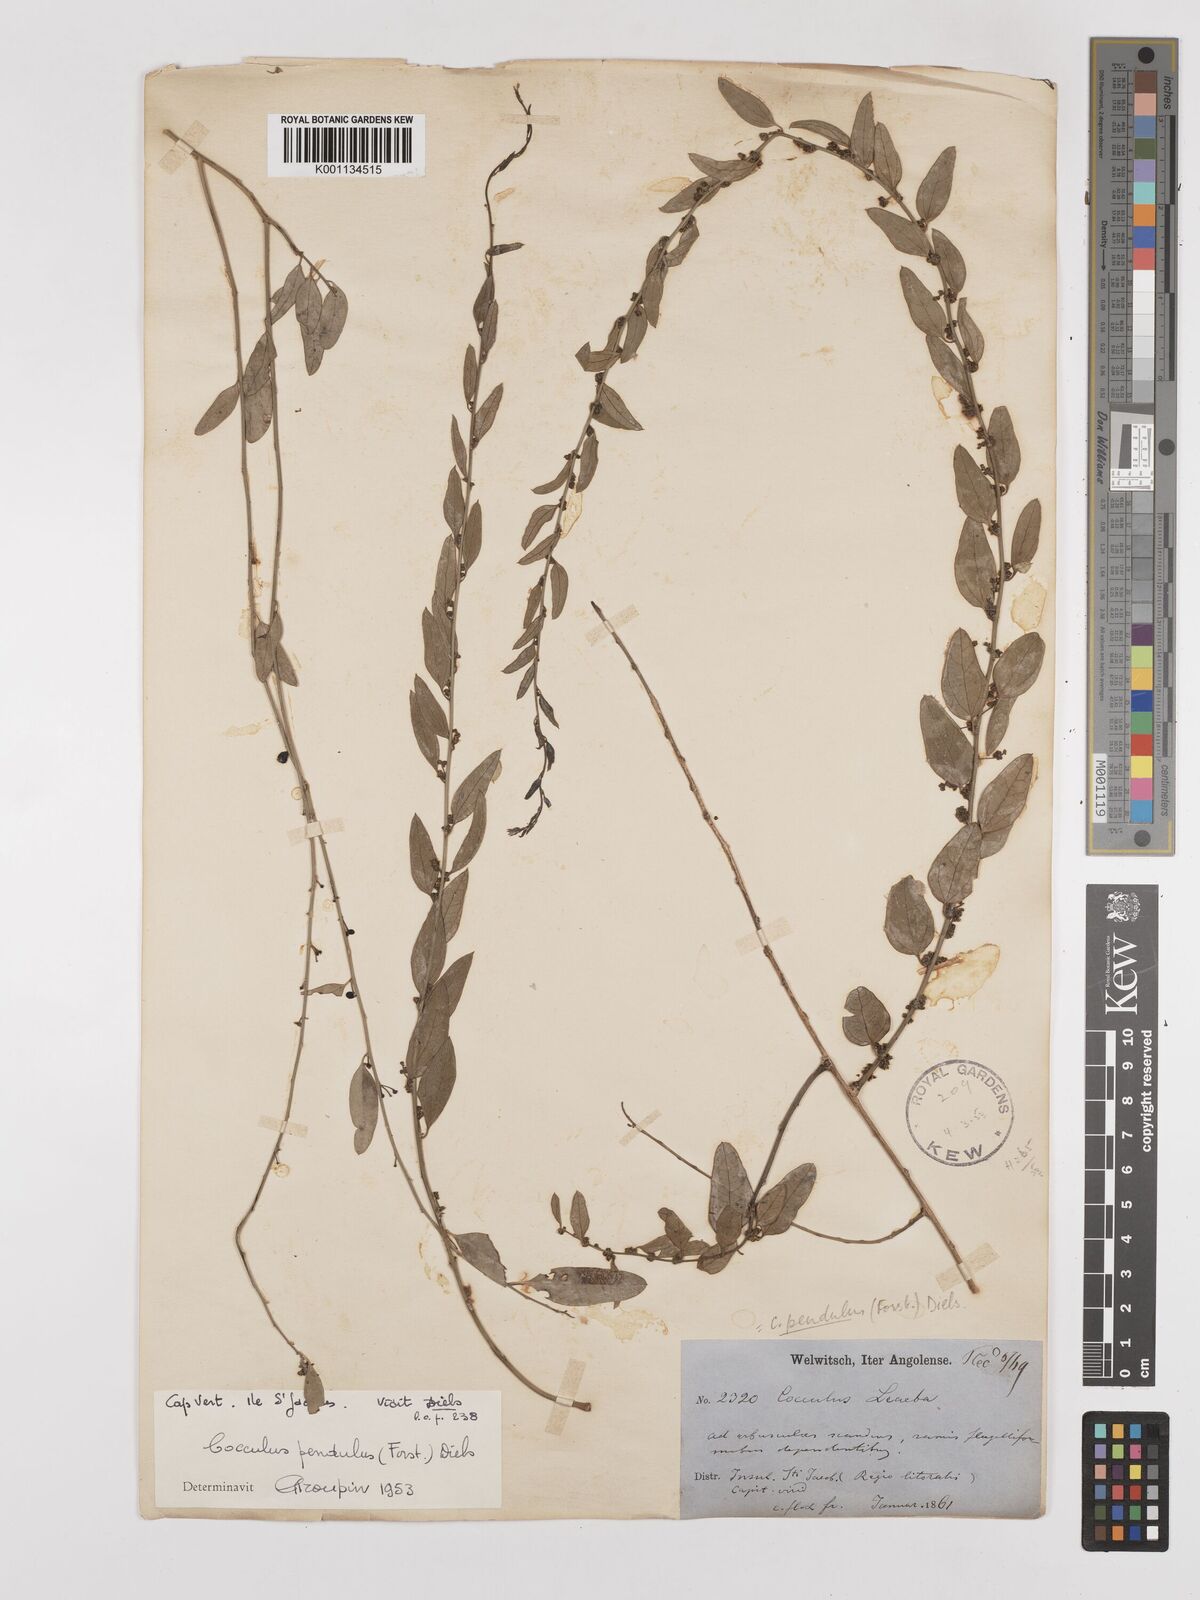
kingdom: Plantae
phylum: Tracheophyta
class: Magnoliopsida
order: Ranunculales
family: Menispermaceae
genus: Cocculus
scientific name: Cocculus pendulus
